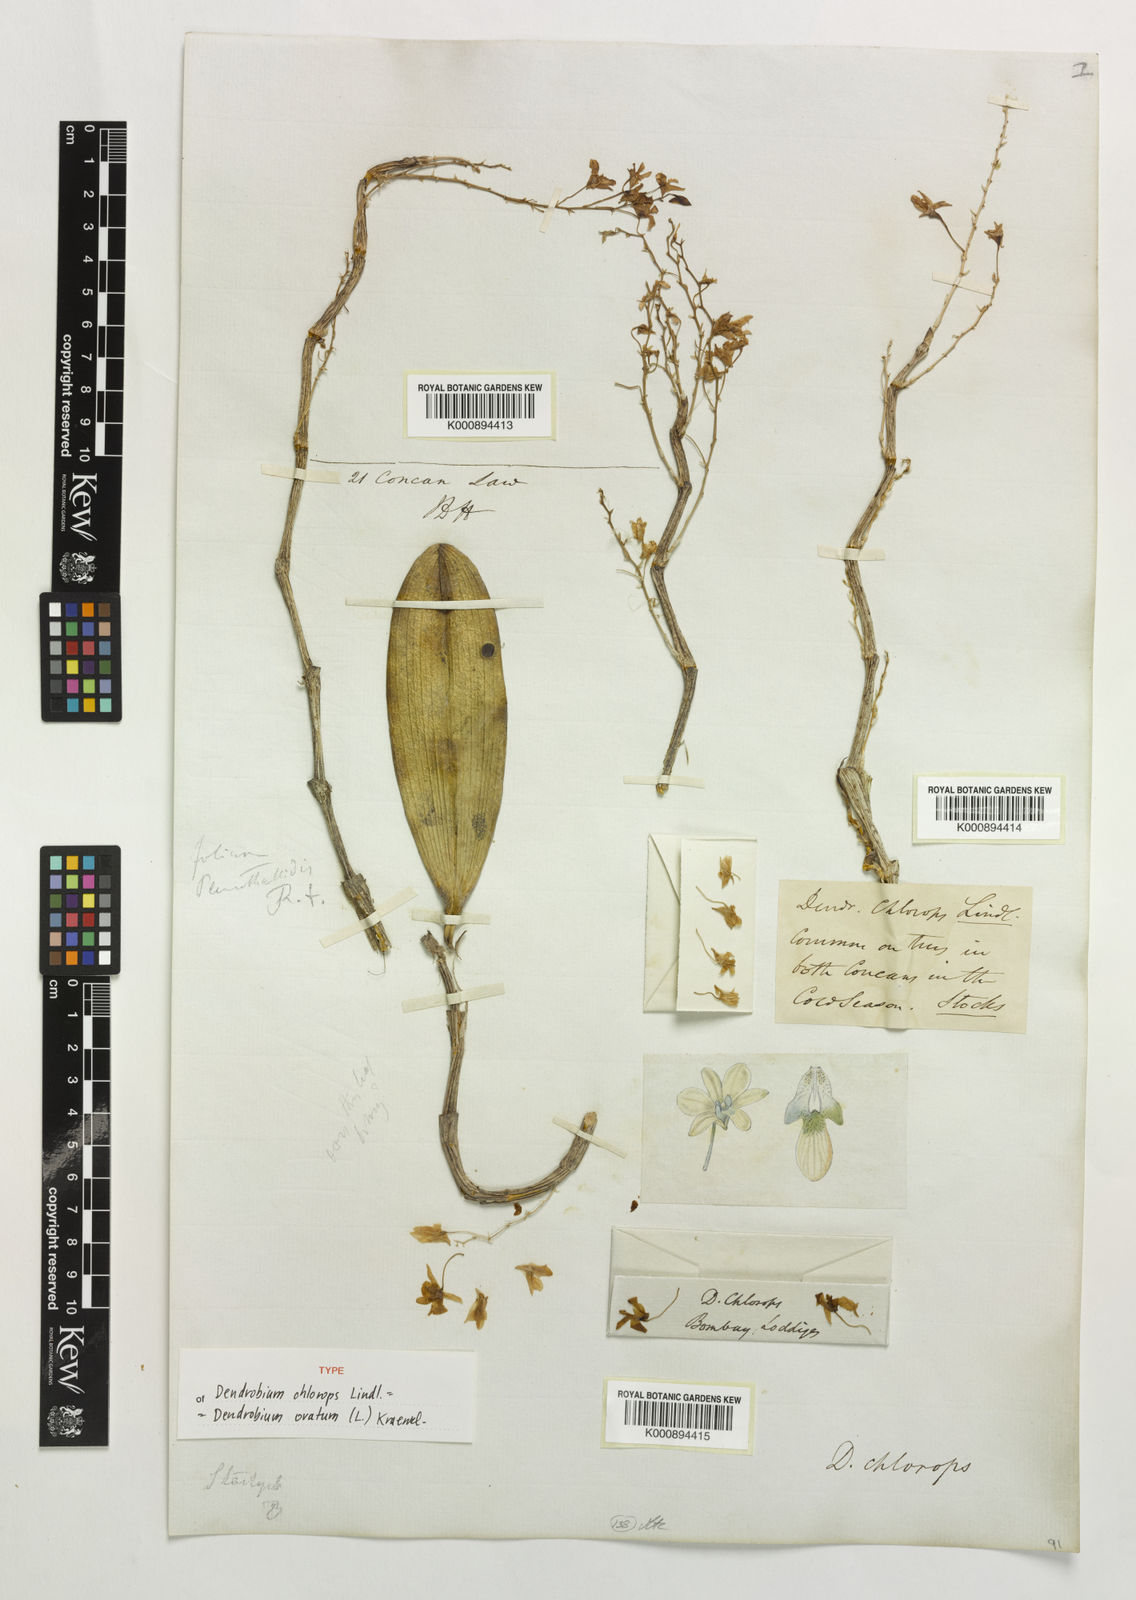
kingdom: Plantae
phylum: Tracheophyta
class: Liliopsida
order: Asparagales
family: Orchidaceae
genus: Dendrobium
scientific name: Dendrobium ovatum
